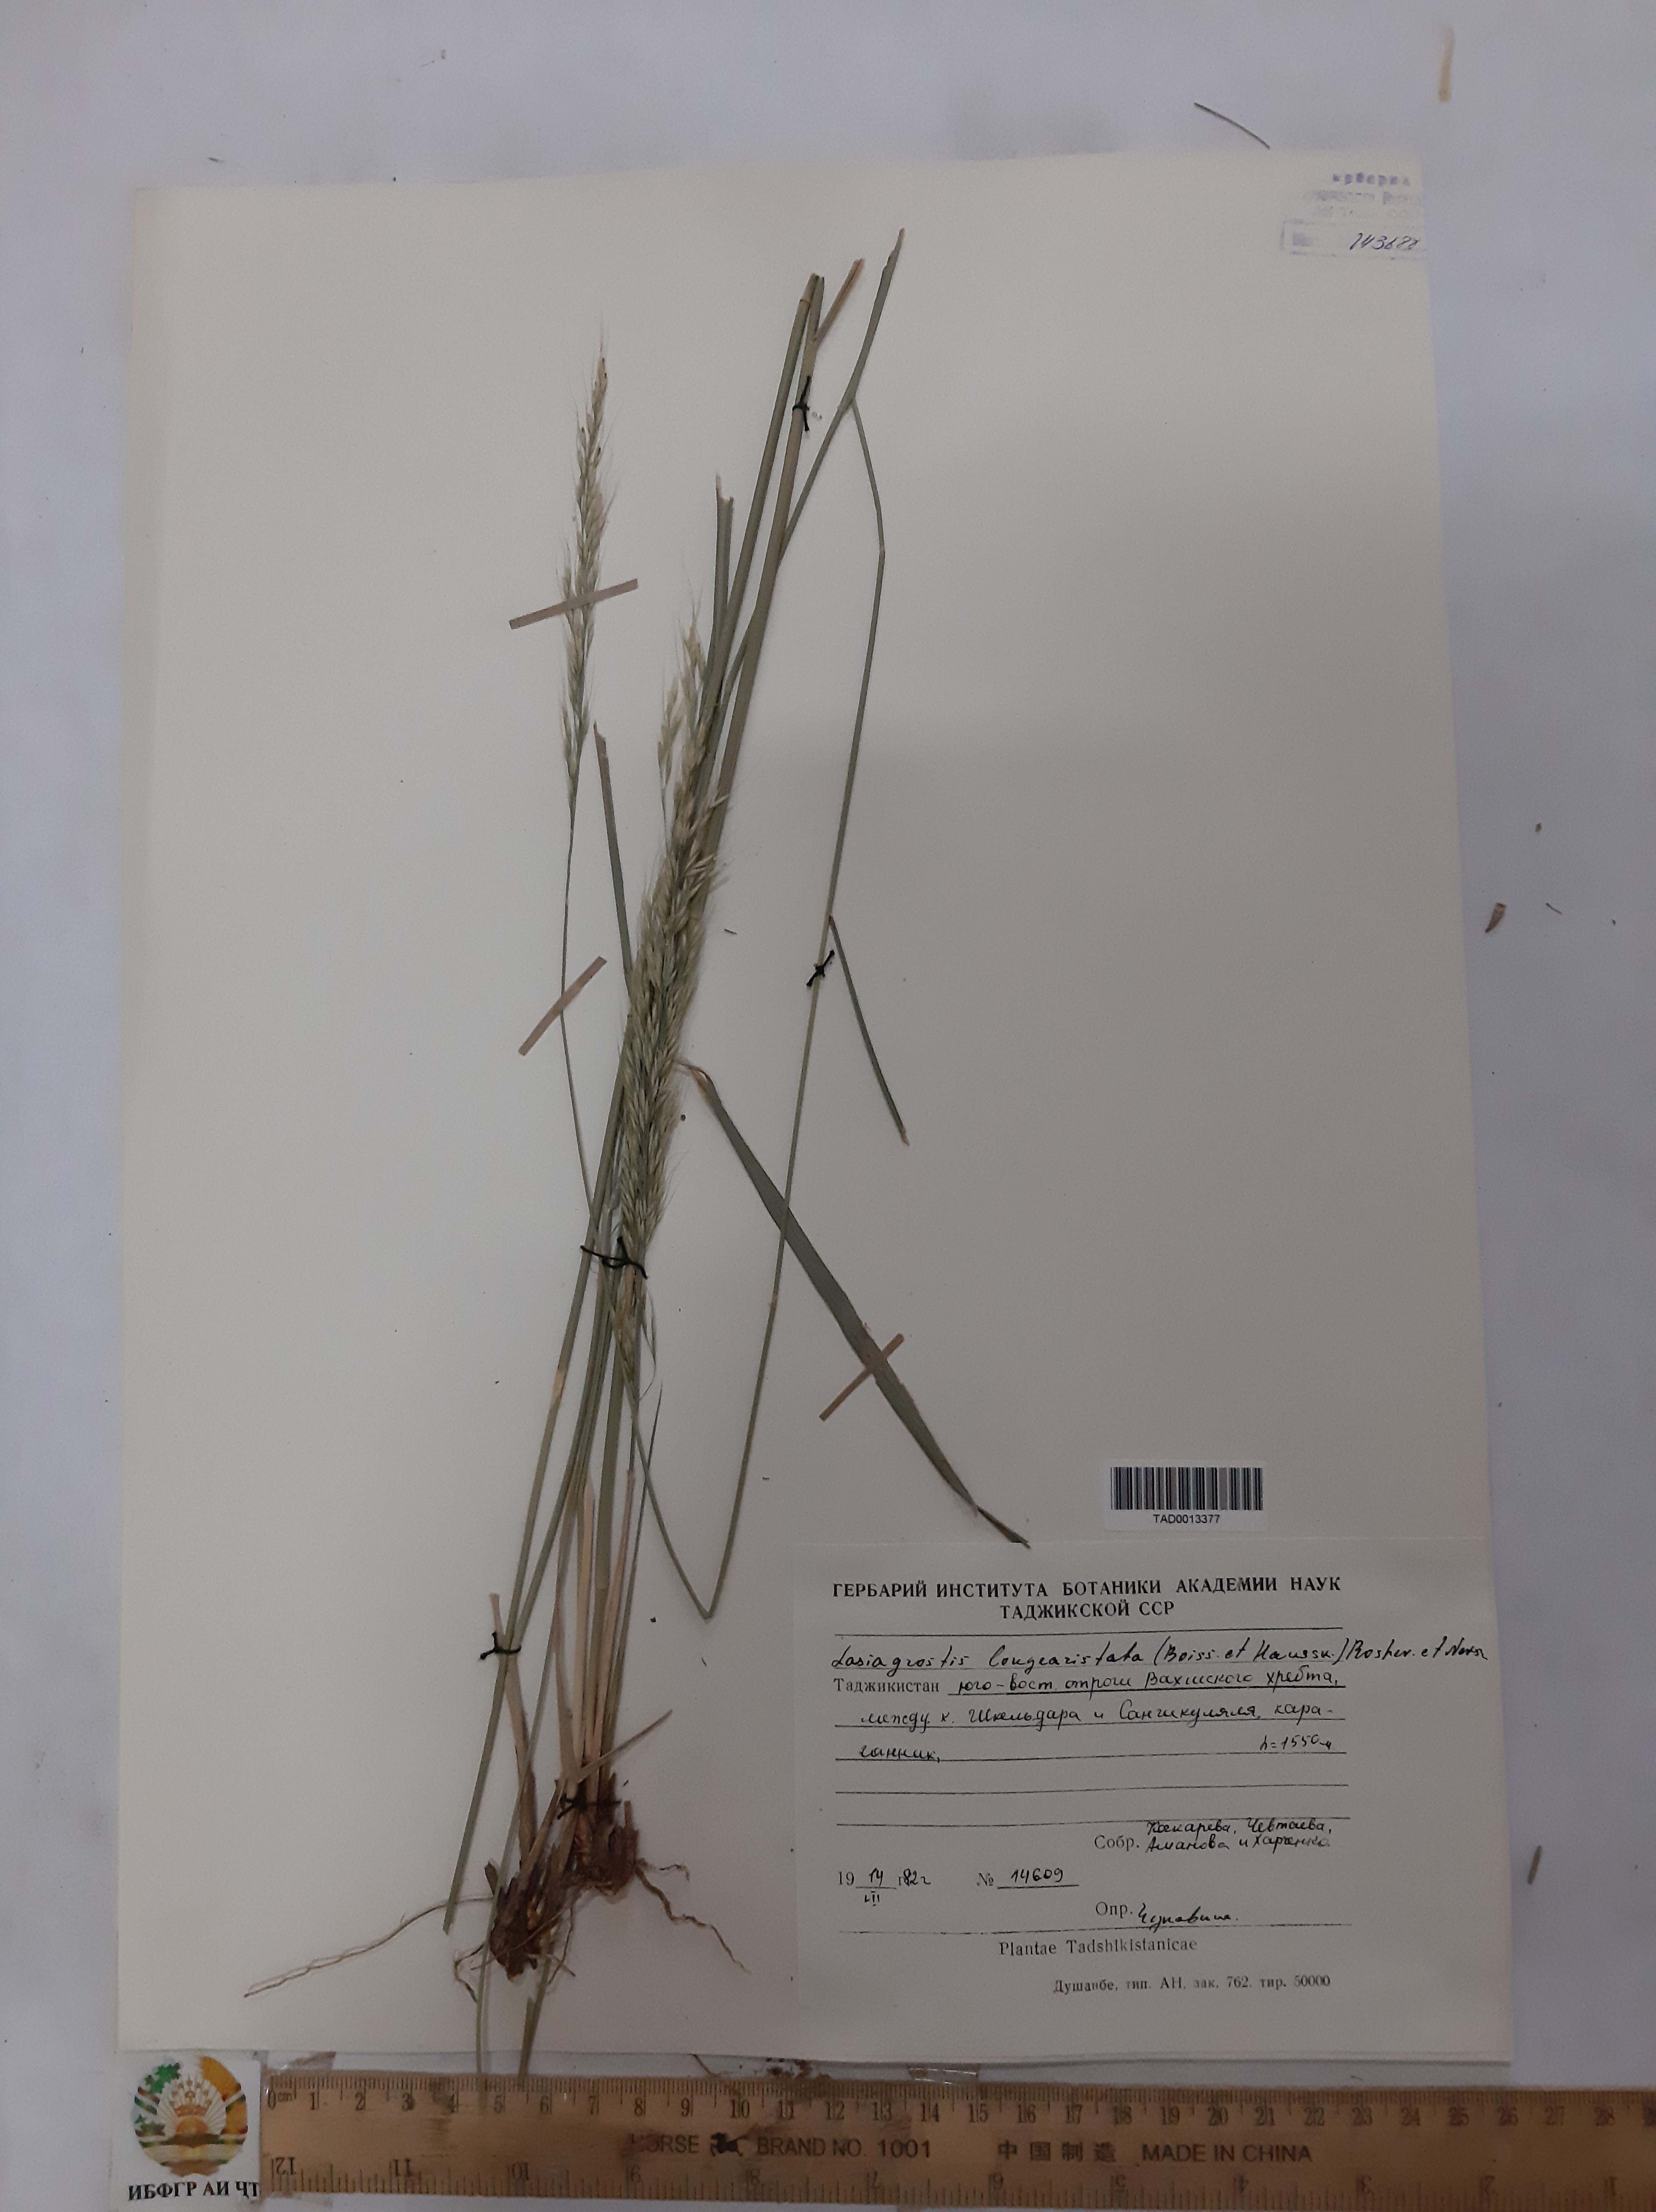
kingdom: Plantae
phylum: Tracheophyta
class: Liliopsida
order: Poales
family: Poaceae
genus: Achnatherum
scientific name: Achnatherum turcomanicum
